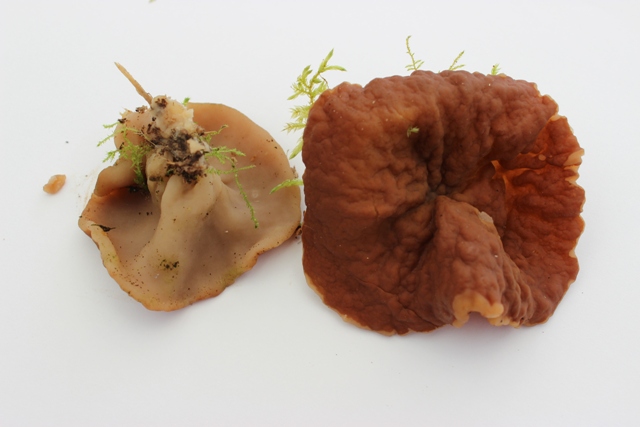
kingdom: Fungi
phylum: Ascomycota
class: Pezizomycetes
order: Pezizales
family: Morchellaceae
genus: Disciotis
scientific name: Disciotis venosa
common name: klor-bægermorkel
